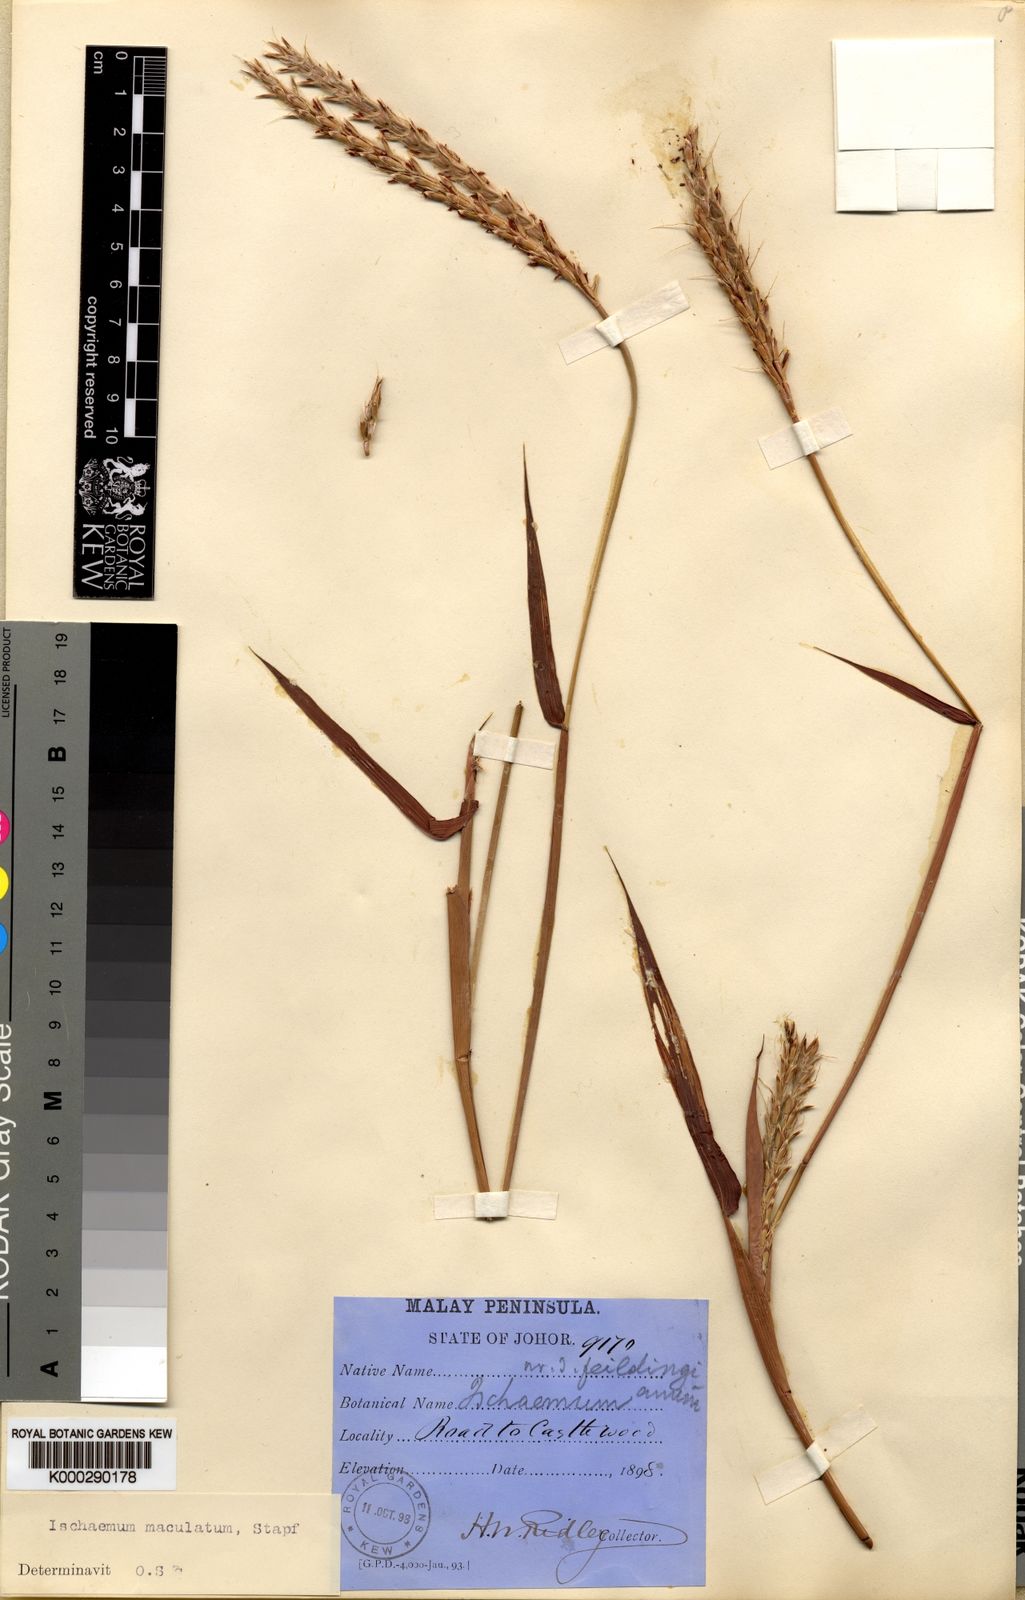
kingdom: Plantae
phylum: Tracheophyta
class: Liliopsida
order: Poales
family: Poaceae
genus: Ischaemum
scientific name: Ischaemum feildingianum
